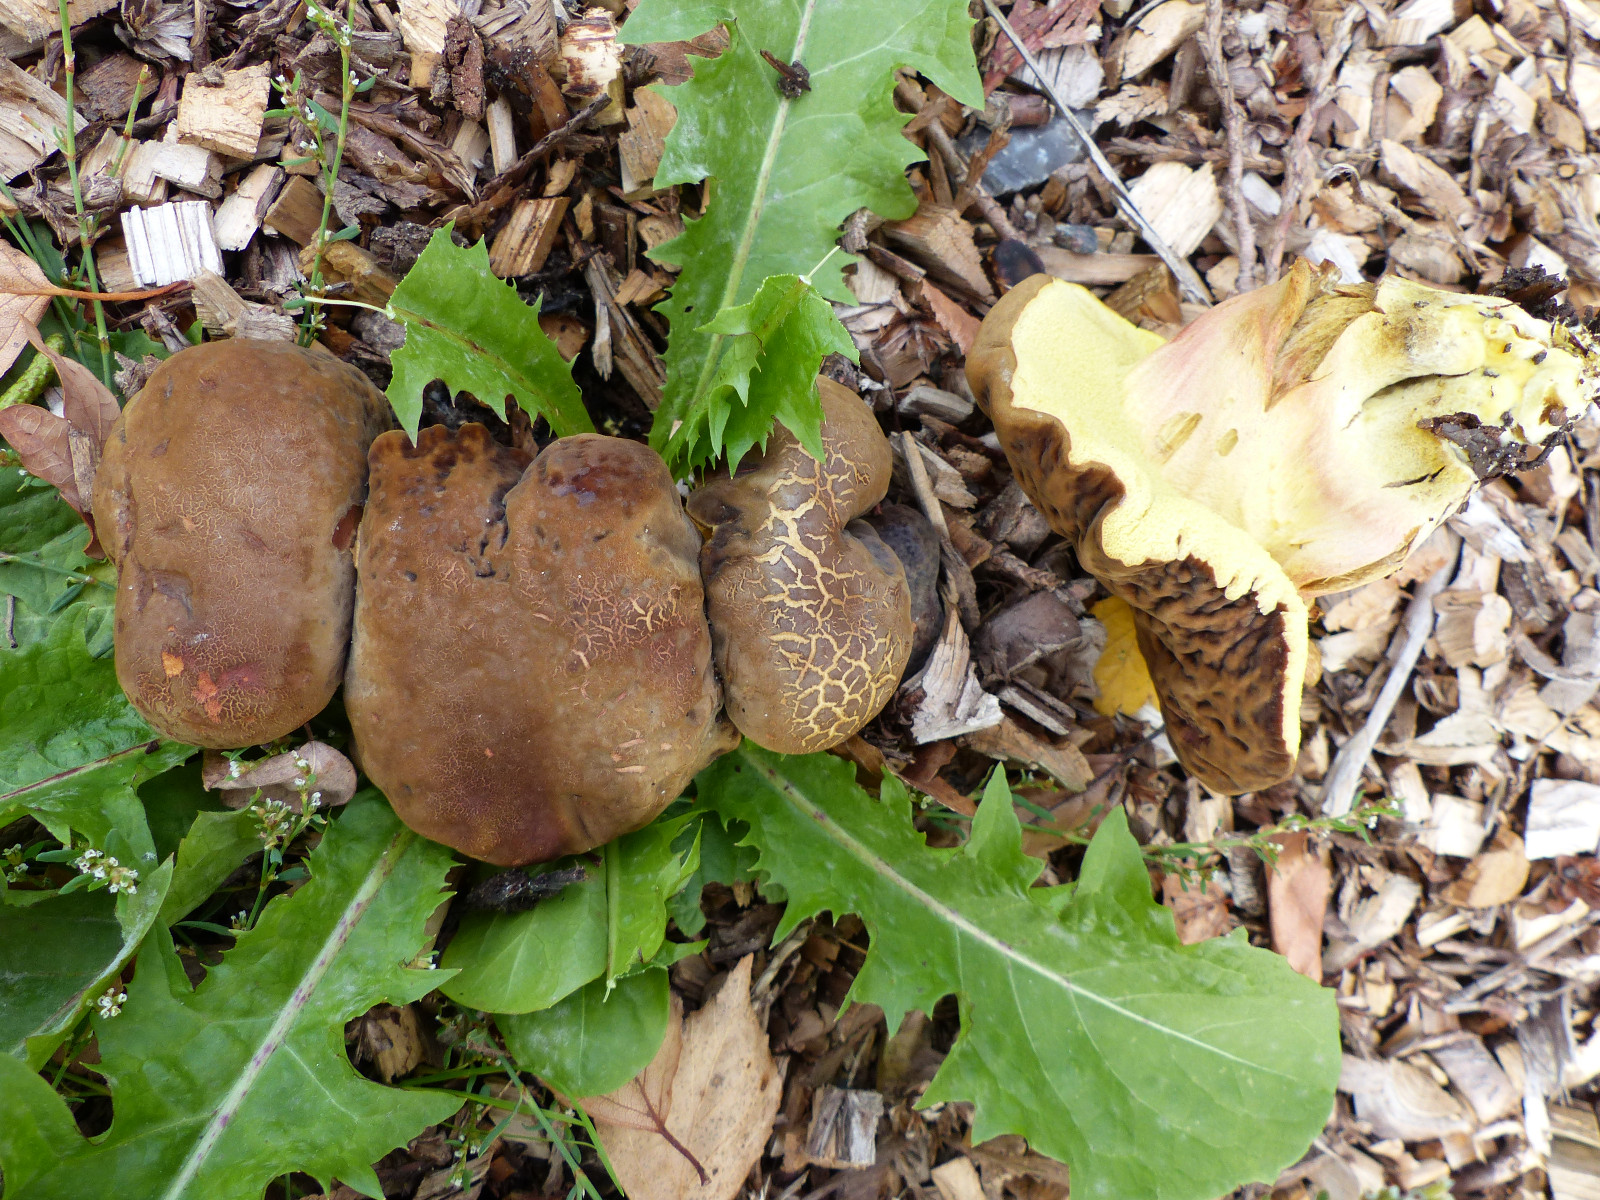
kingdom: Fungi
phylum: Basidiomycota
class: Agaricomycetes
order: Boletales
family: Boletaceae
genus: Hortiboletus
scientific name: Hortiboletus bubalinus
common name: aurora-rørhat
